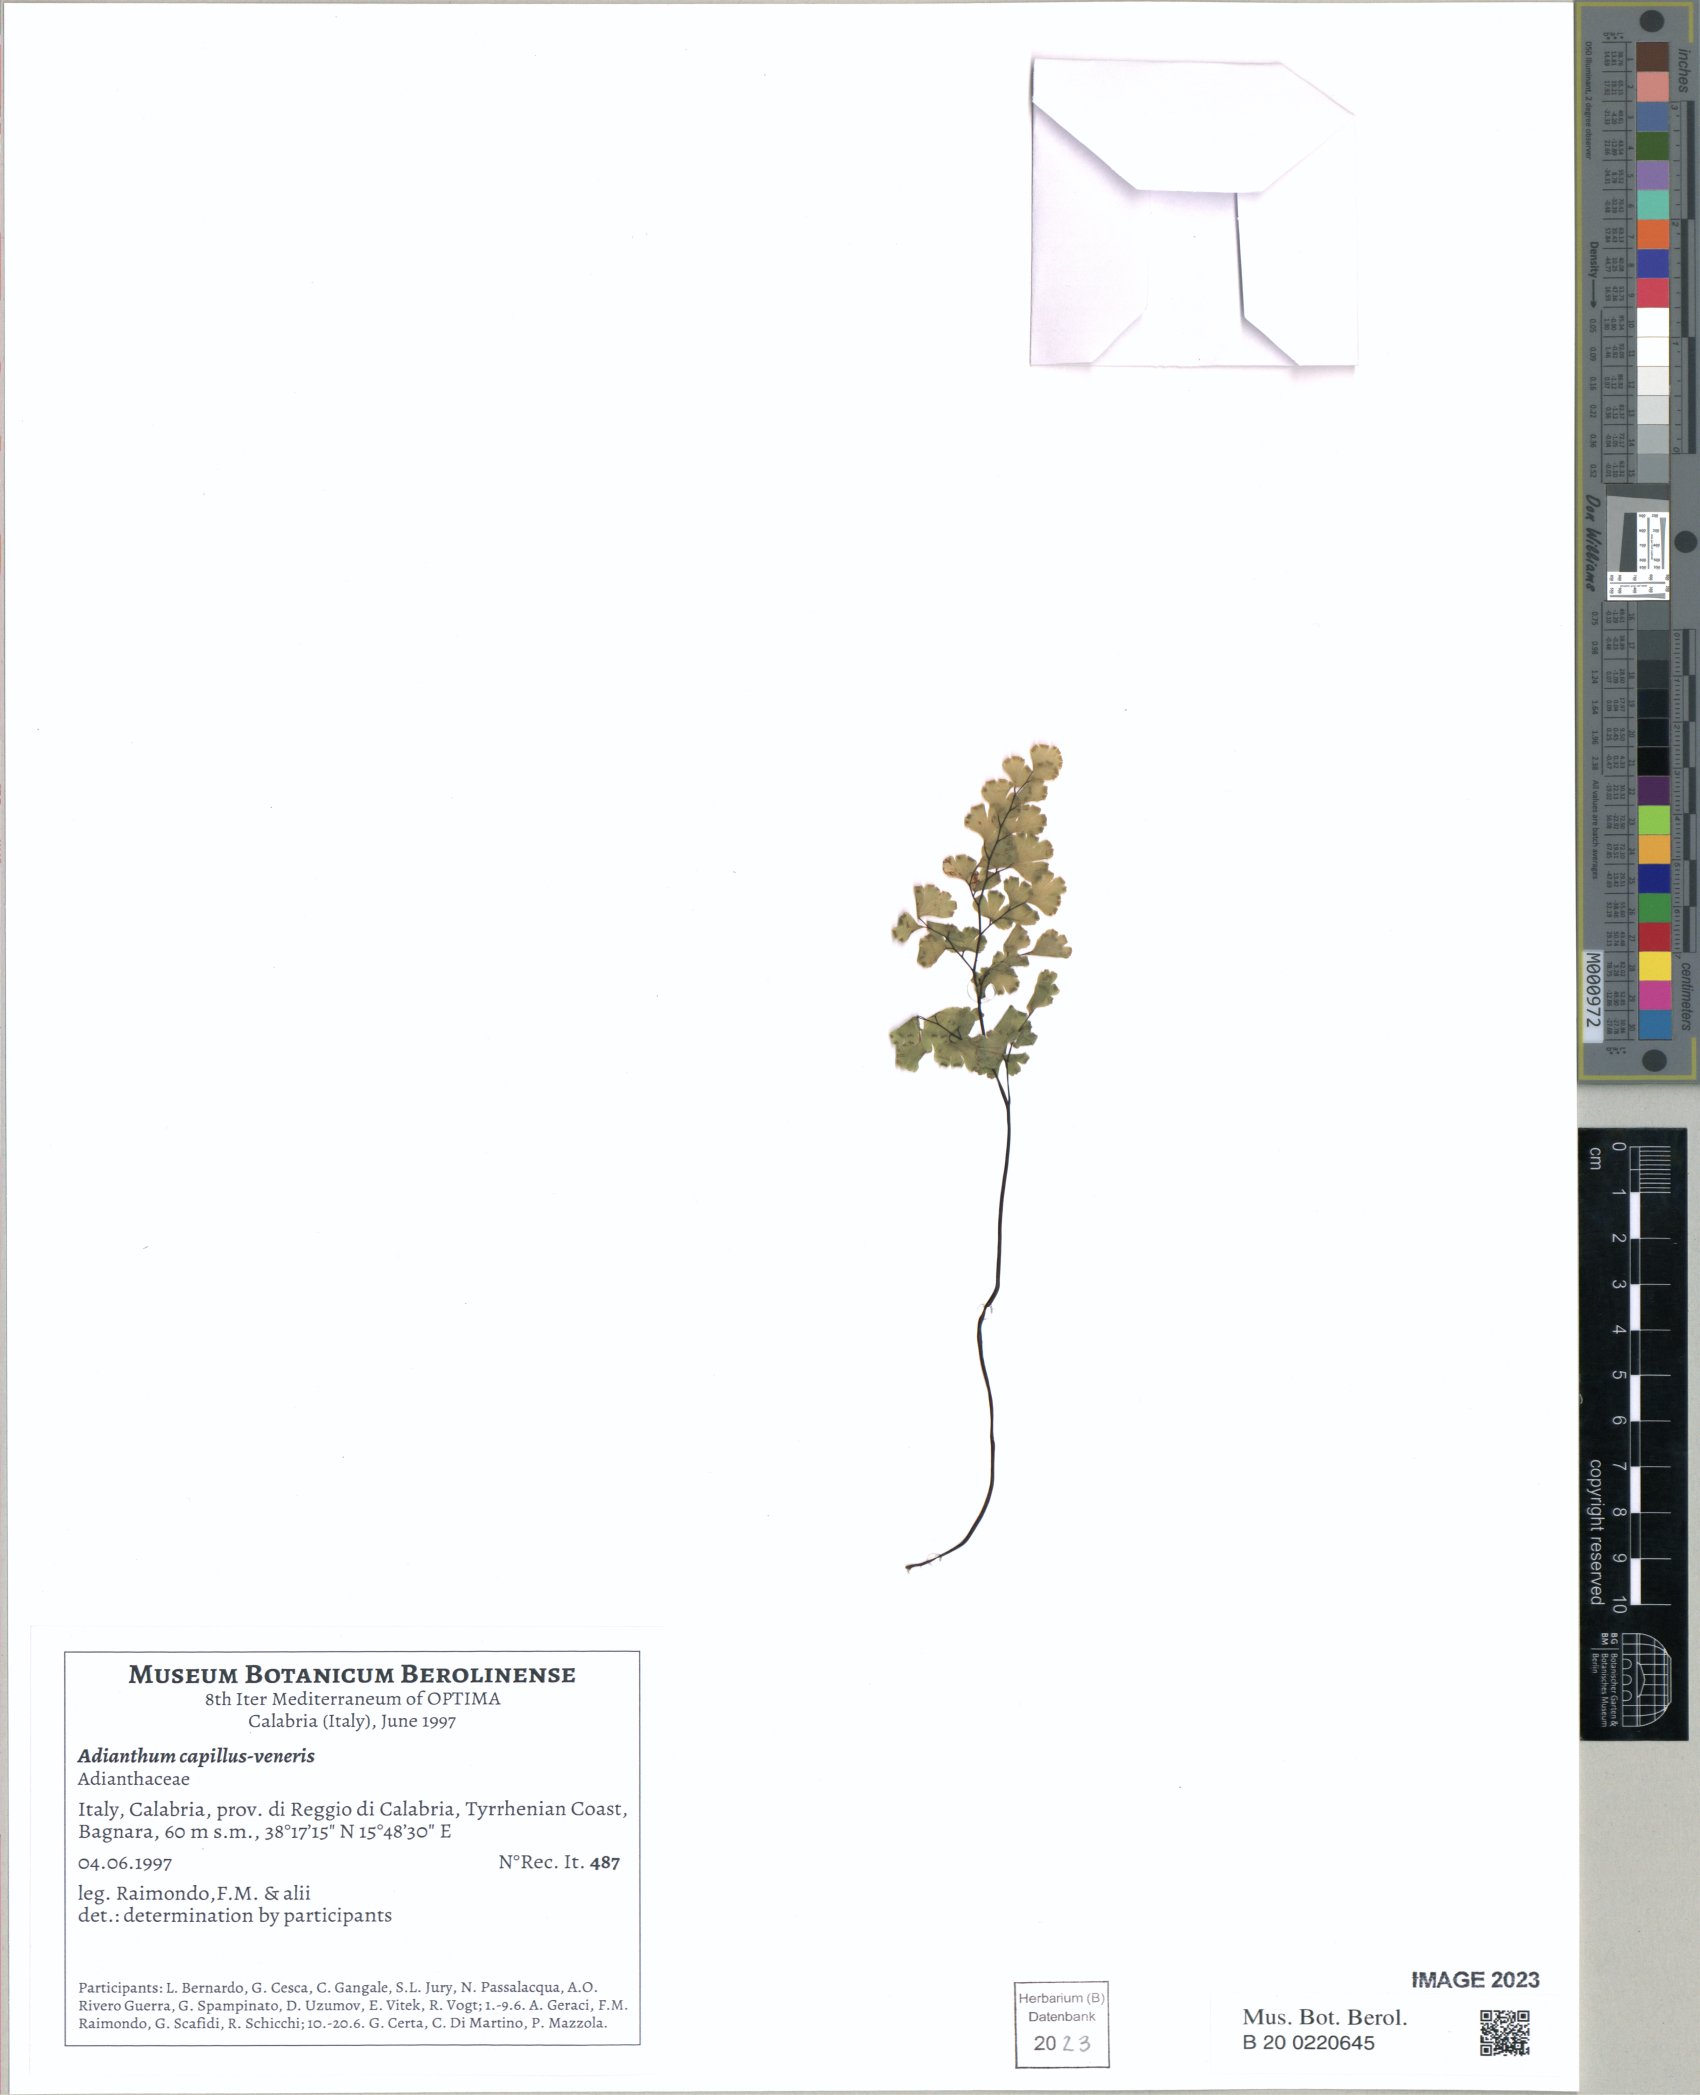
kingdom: Plantae
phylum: Tracheophyta
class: Polypodiopsida
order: Polypodiales
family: Pteridaceae
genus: Adiantum
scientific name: Adiantum capillus-veneris
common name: Maidenhair fern
